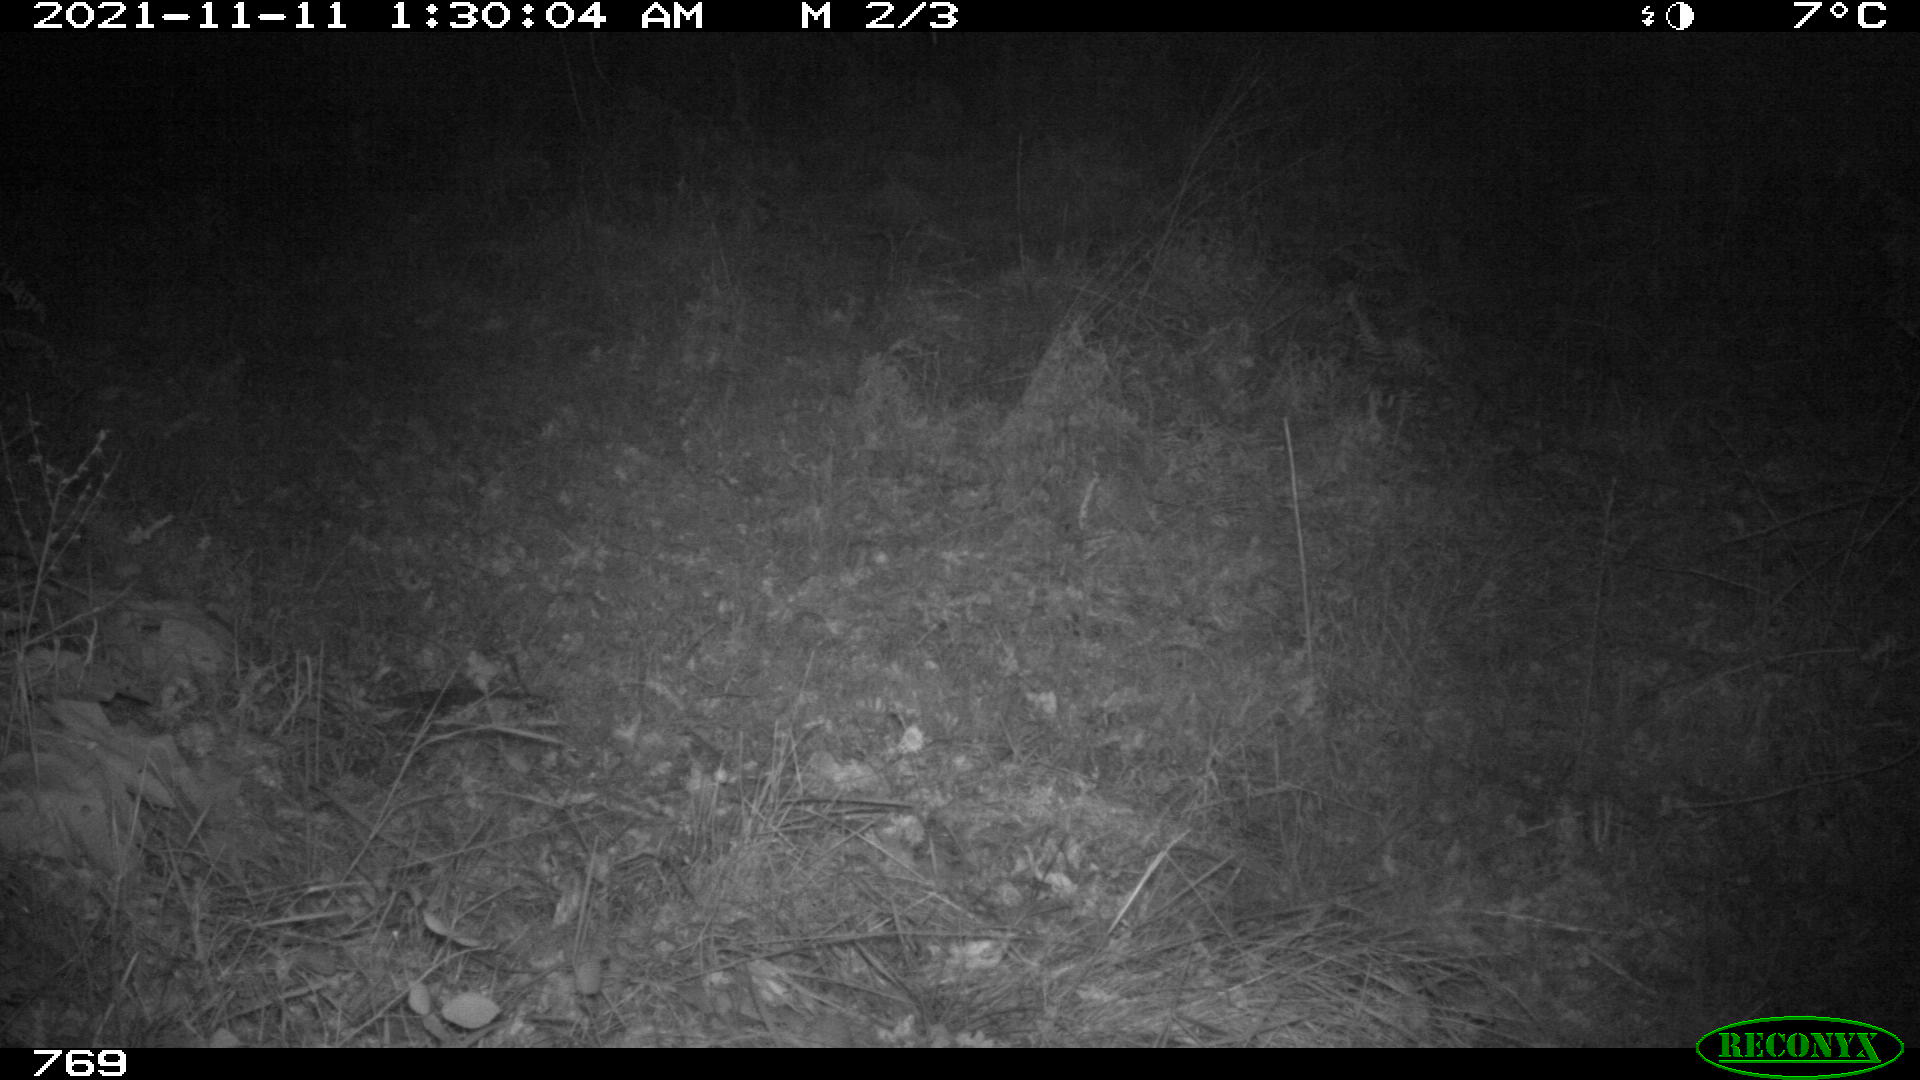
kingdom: Animalia
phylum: Chordata
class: Mammalia
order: Artiodactyla
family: Cervidae
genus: Capreolus
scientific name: Capreolus capreolus
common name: Western roe deer
